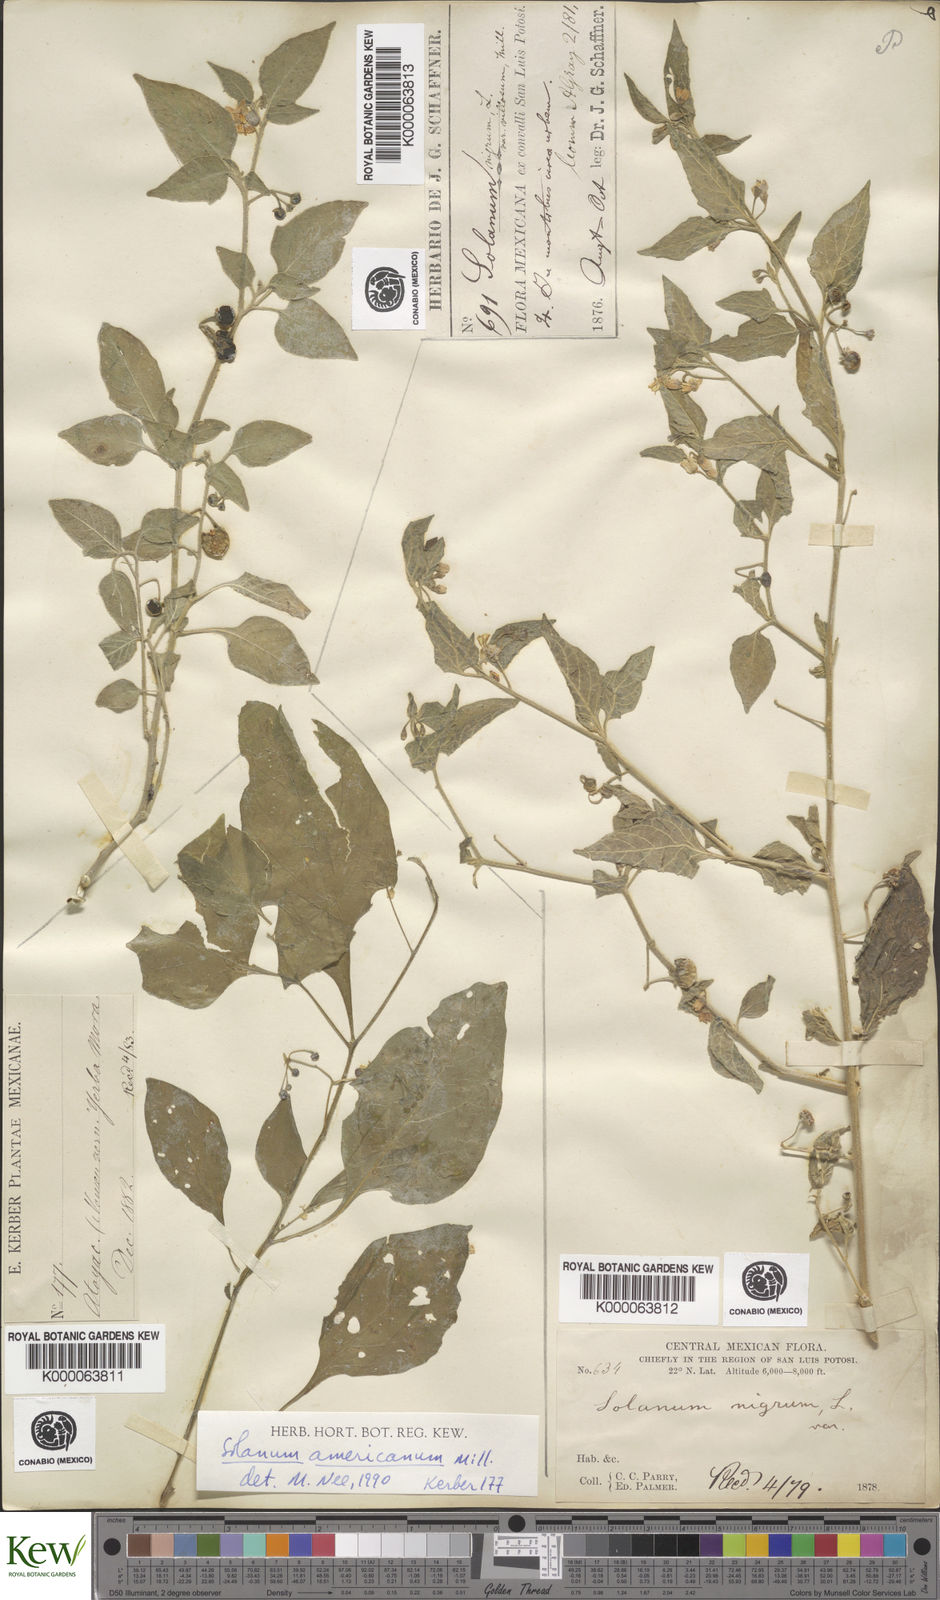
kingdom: Plantae
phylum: Tracheophyta
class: Magnoliopsida
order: Solanales
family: Solanaceae
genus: Solanum
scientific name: Solanum americanum
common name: American black nightshade
